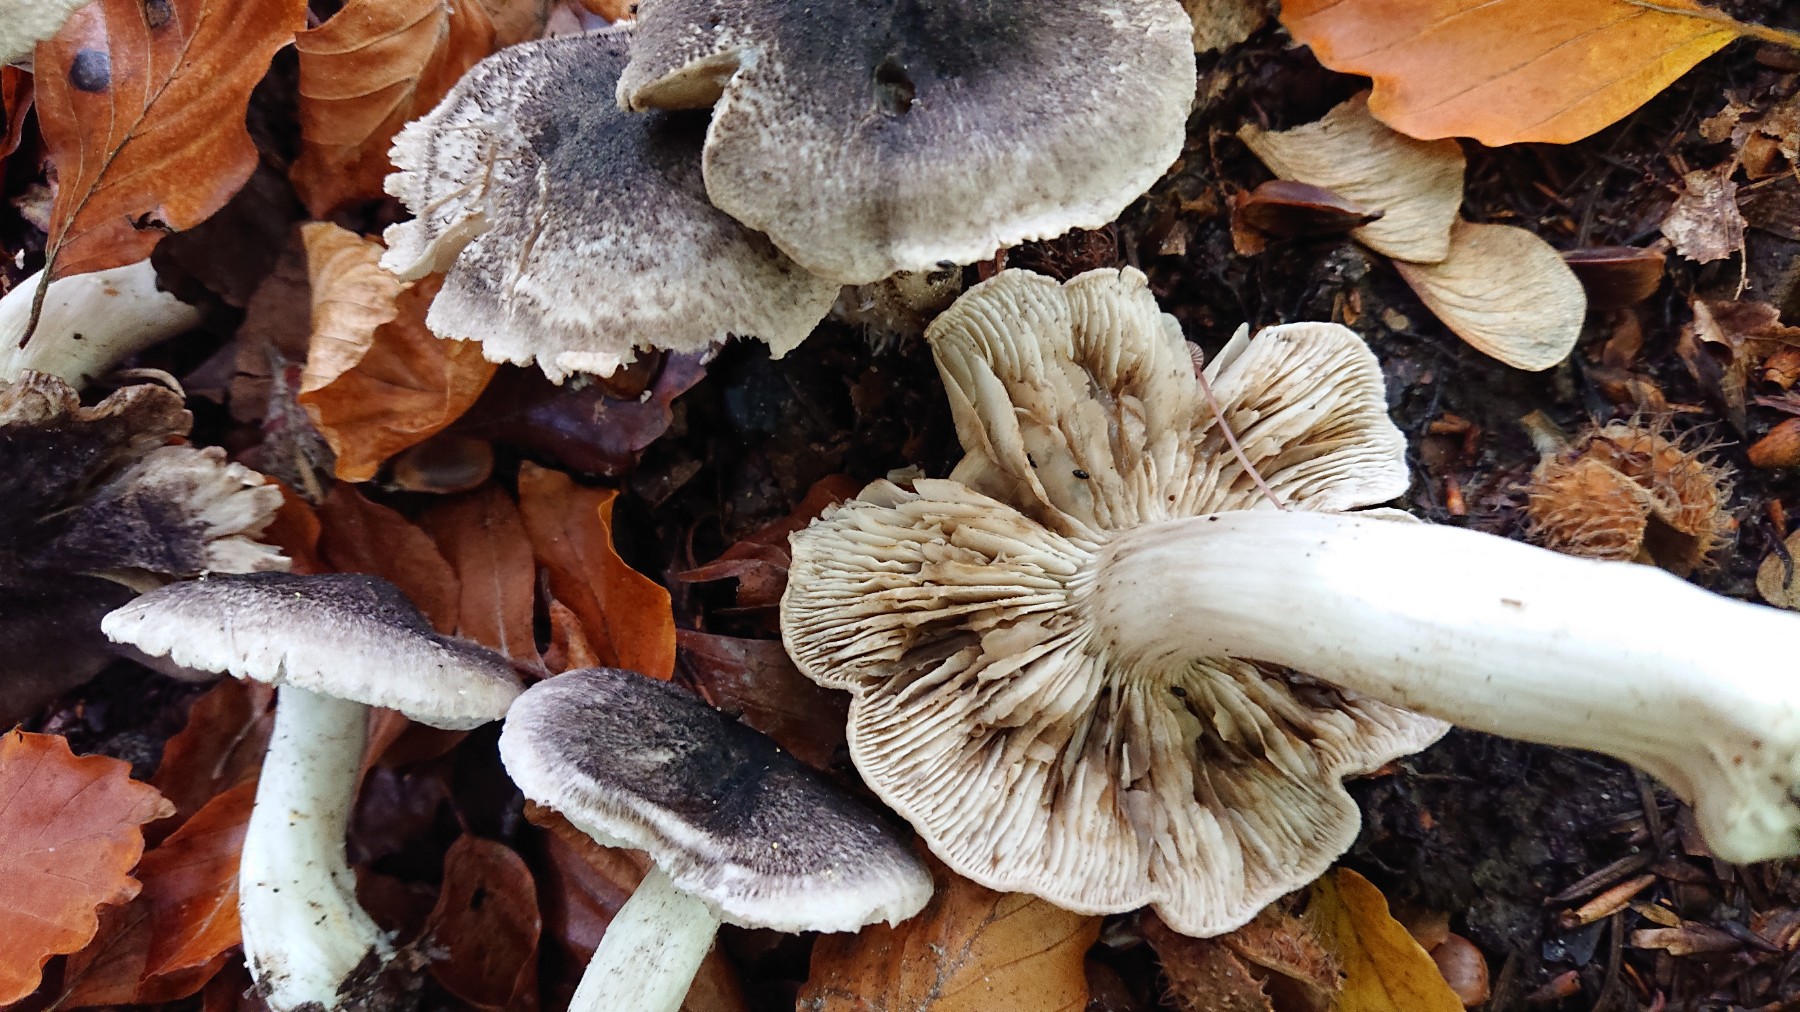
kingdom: Fungi
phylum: Basidiomycota
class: Agaricomycetes
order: Agaricales
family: Tricholomataceae
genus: Tricholoma
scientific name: Tricholoma orirubens
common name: rødbladet ridderhat
